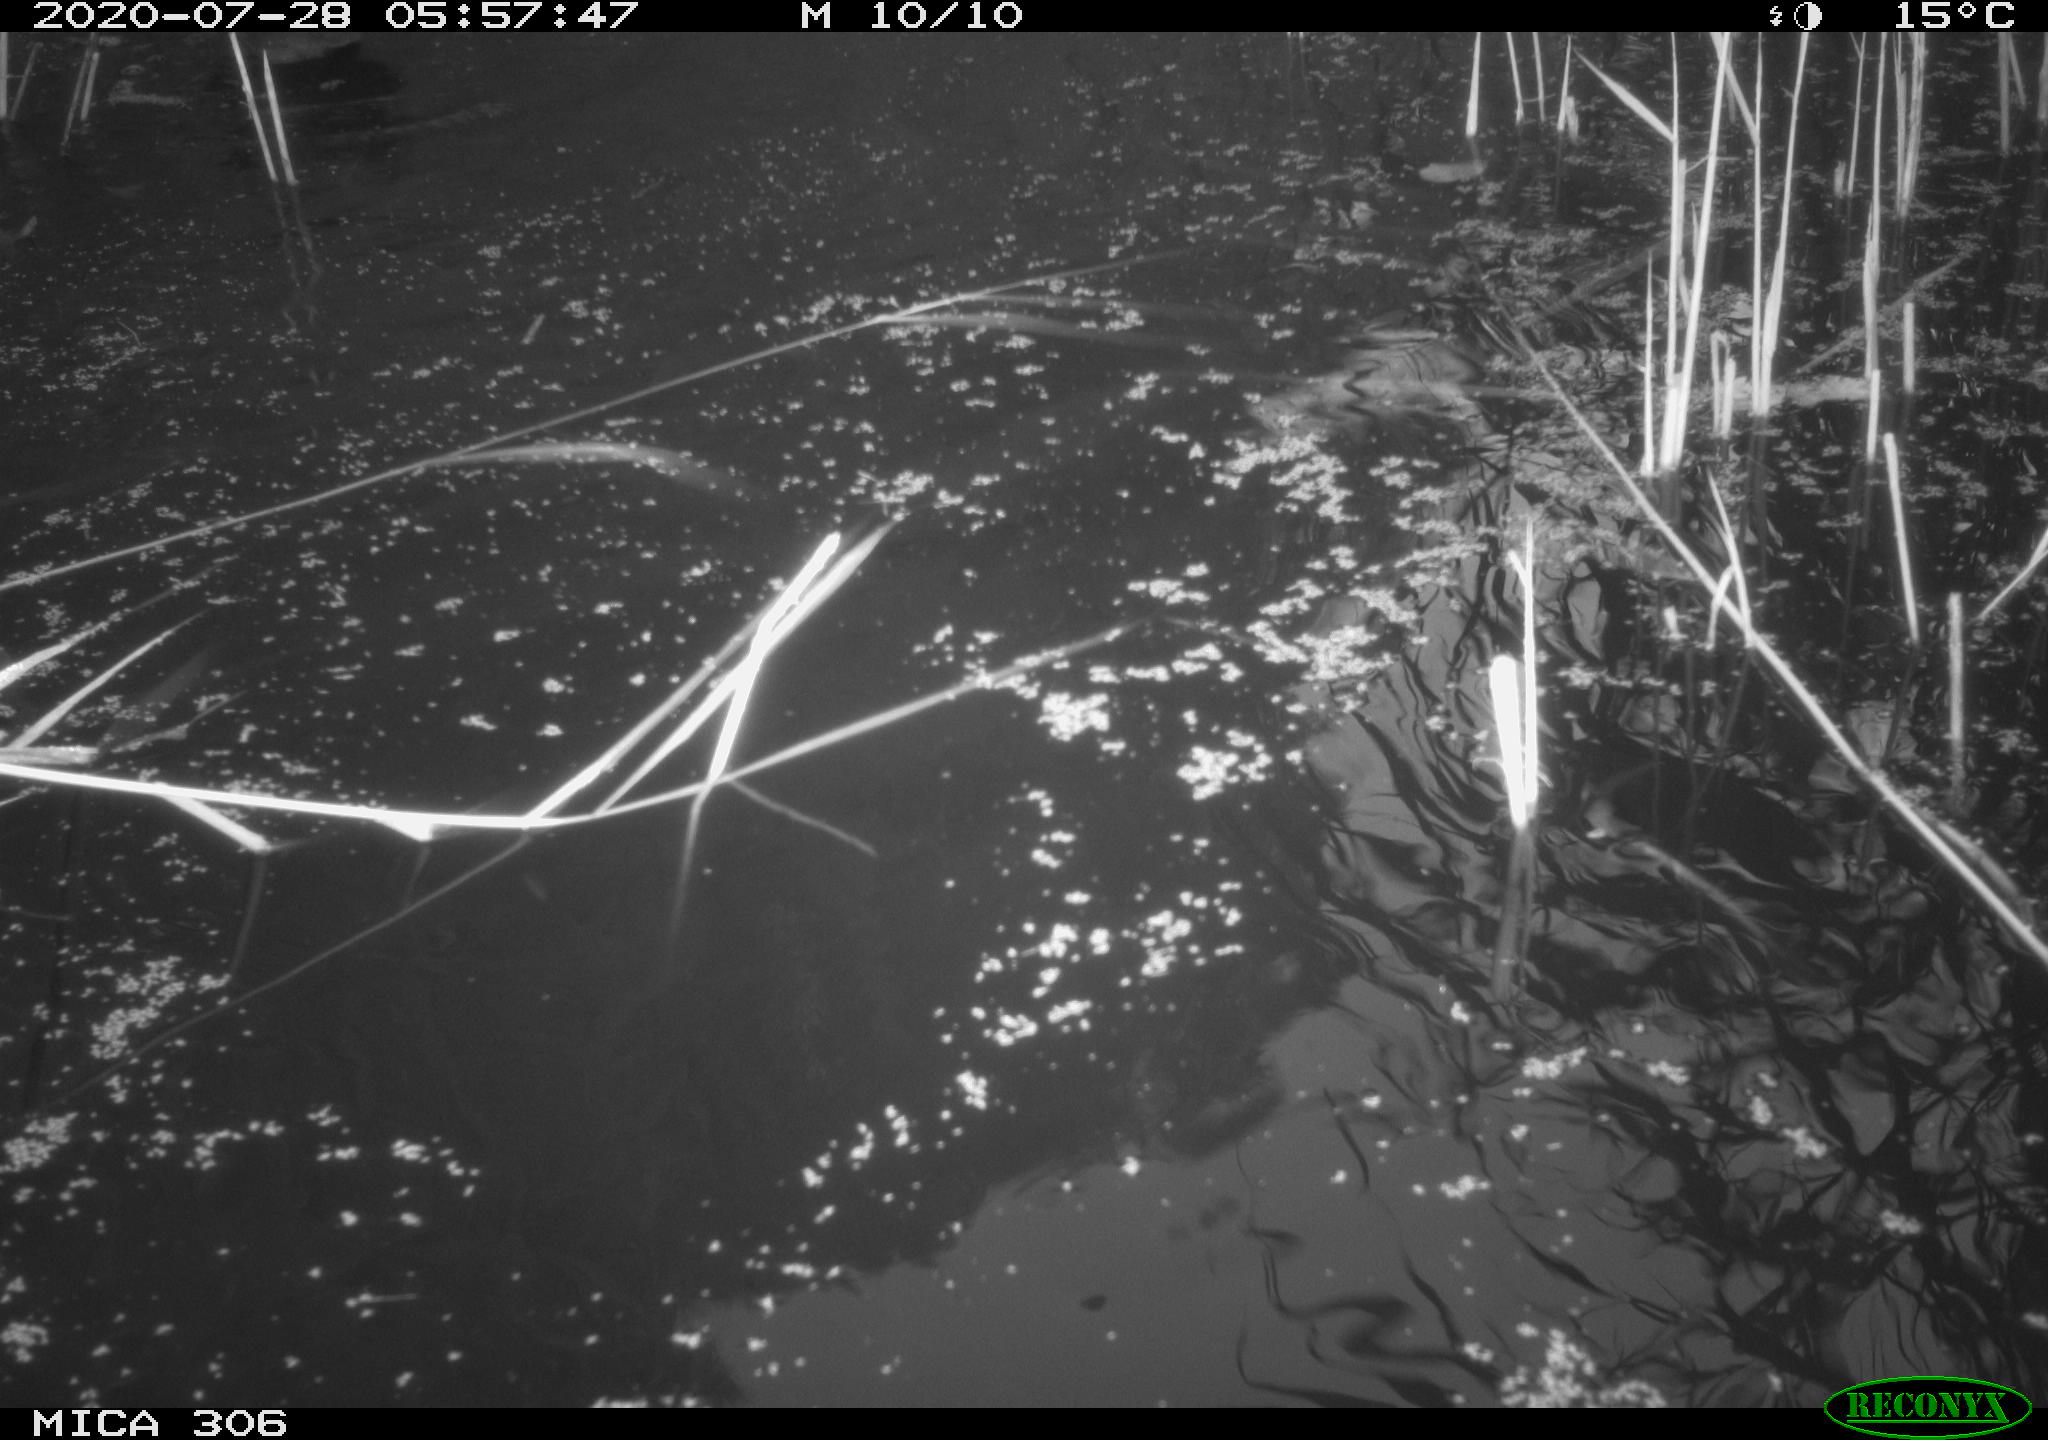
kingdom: Animalia
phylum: Chordata
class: Mammalia
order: Rodentia
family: Muridae
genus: Rattus
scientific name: Rattus norvegicus
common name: Brown rat
